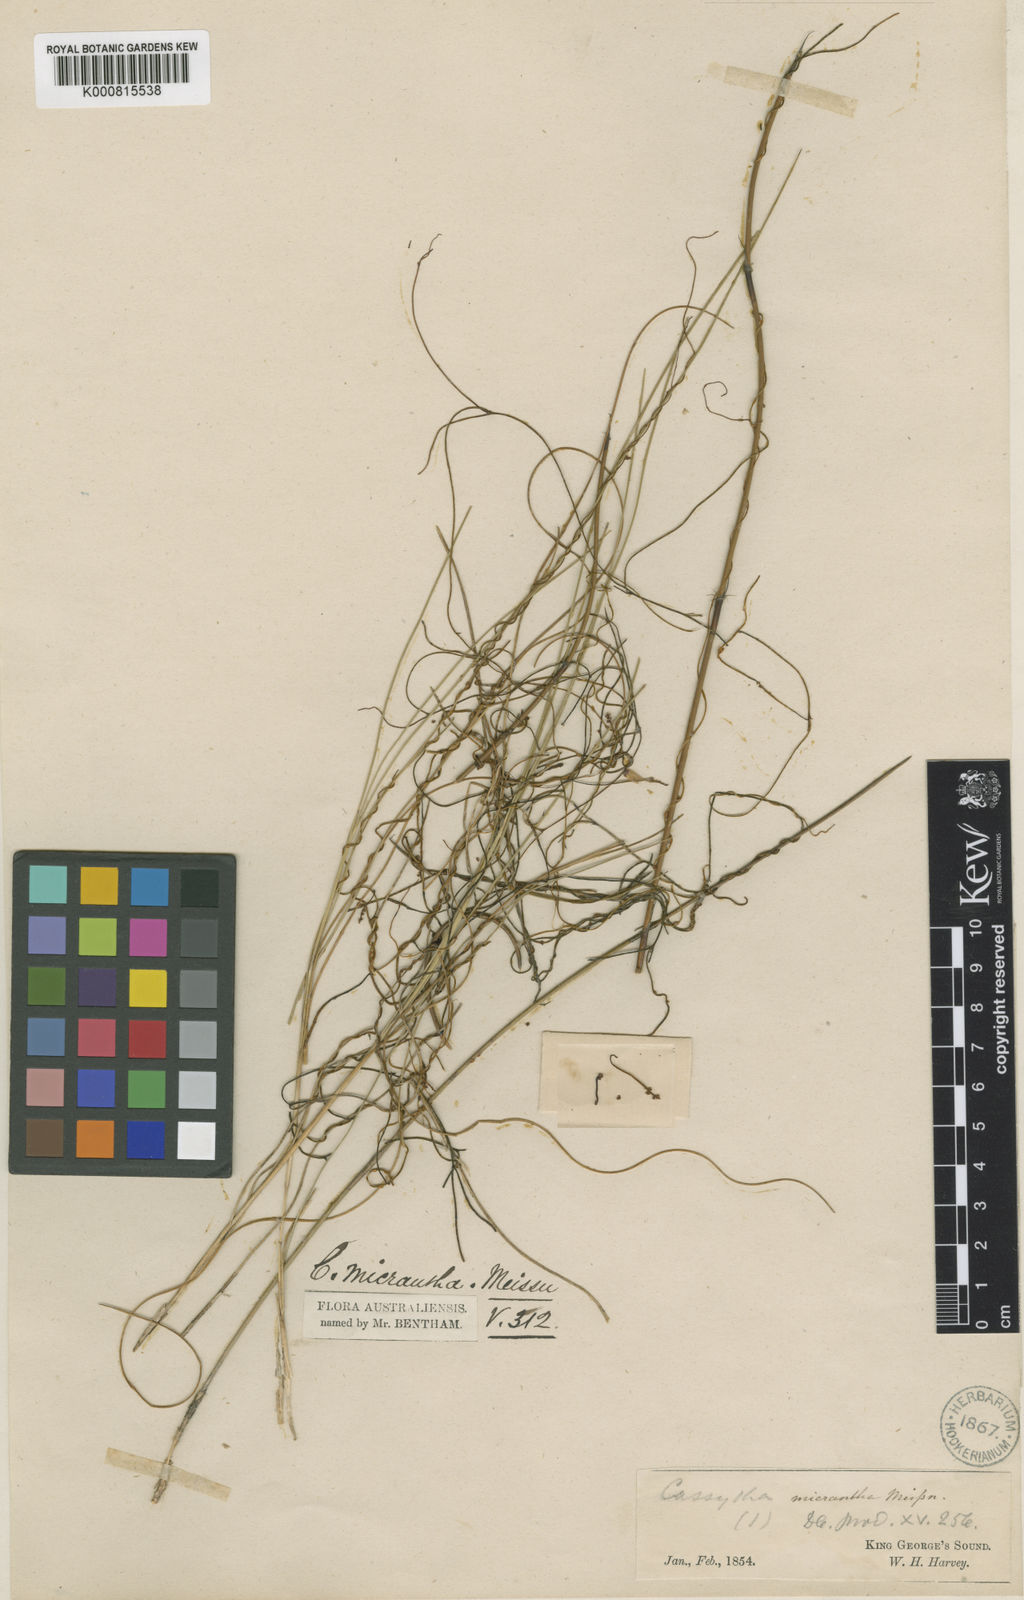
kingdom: Plantae
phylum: Tracheophyta
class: Magnoliopsida
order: Laurales
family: Lauraceae
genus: Cassytha
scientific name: Cassytha micrantha
